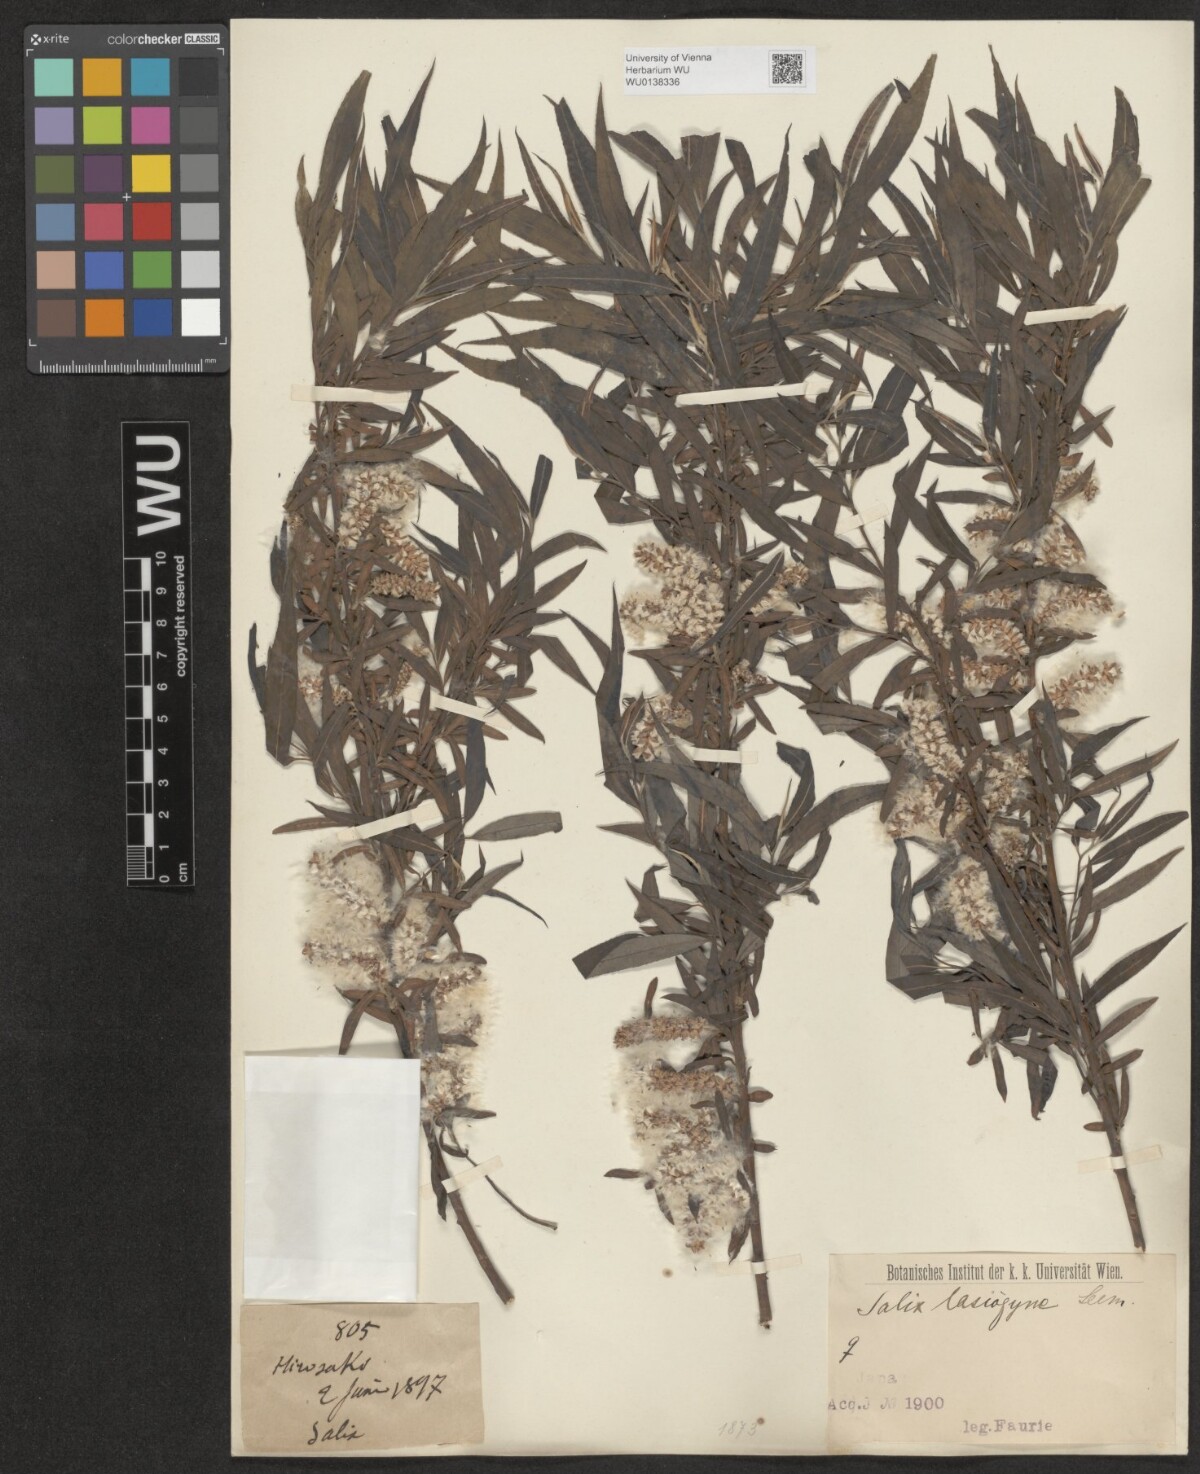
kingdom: Plantae
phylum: Tracheophyta
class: Magnoliopsida
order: Malpighiales
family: Salicaceae
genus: Salix
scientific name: Salix babylonica
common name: Weeping willow
